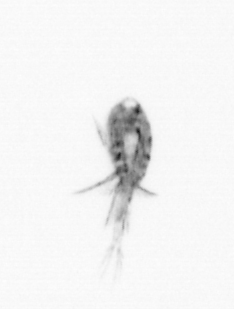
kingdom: Animalia
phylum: Arthropoda
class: Copepoda
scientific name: Copepoda
